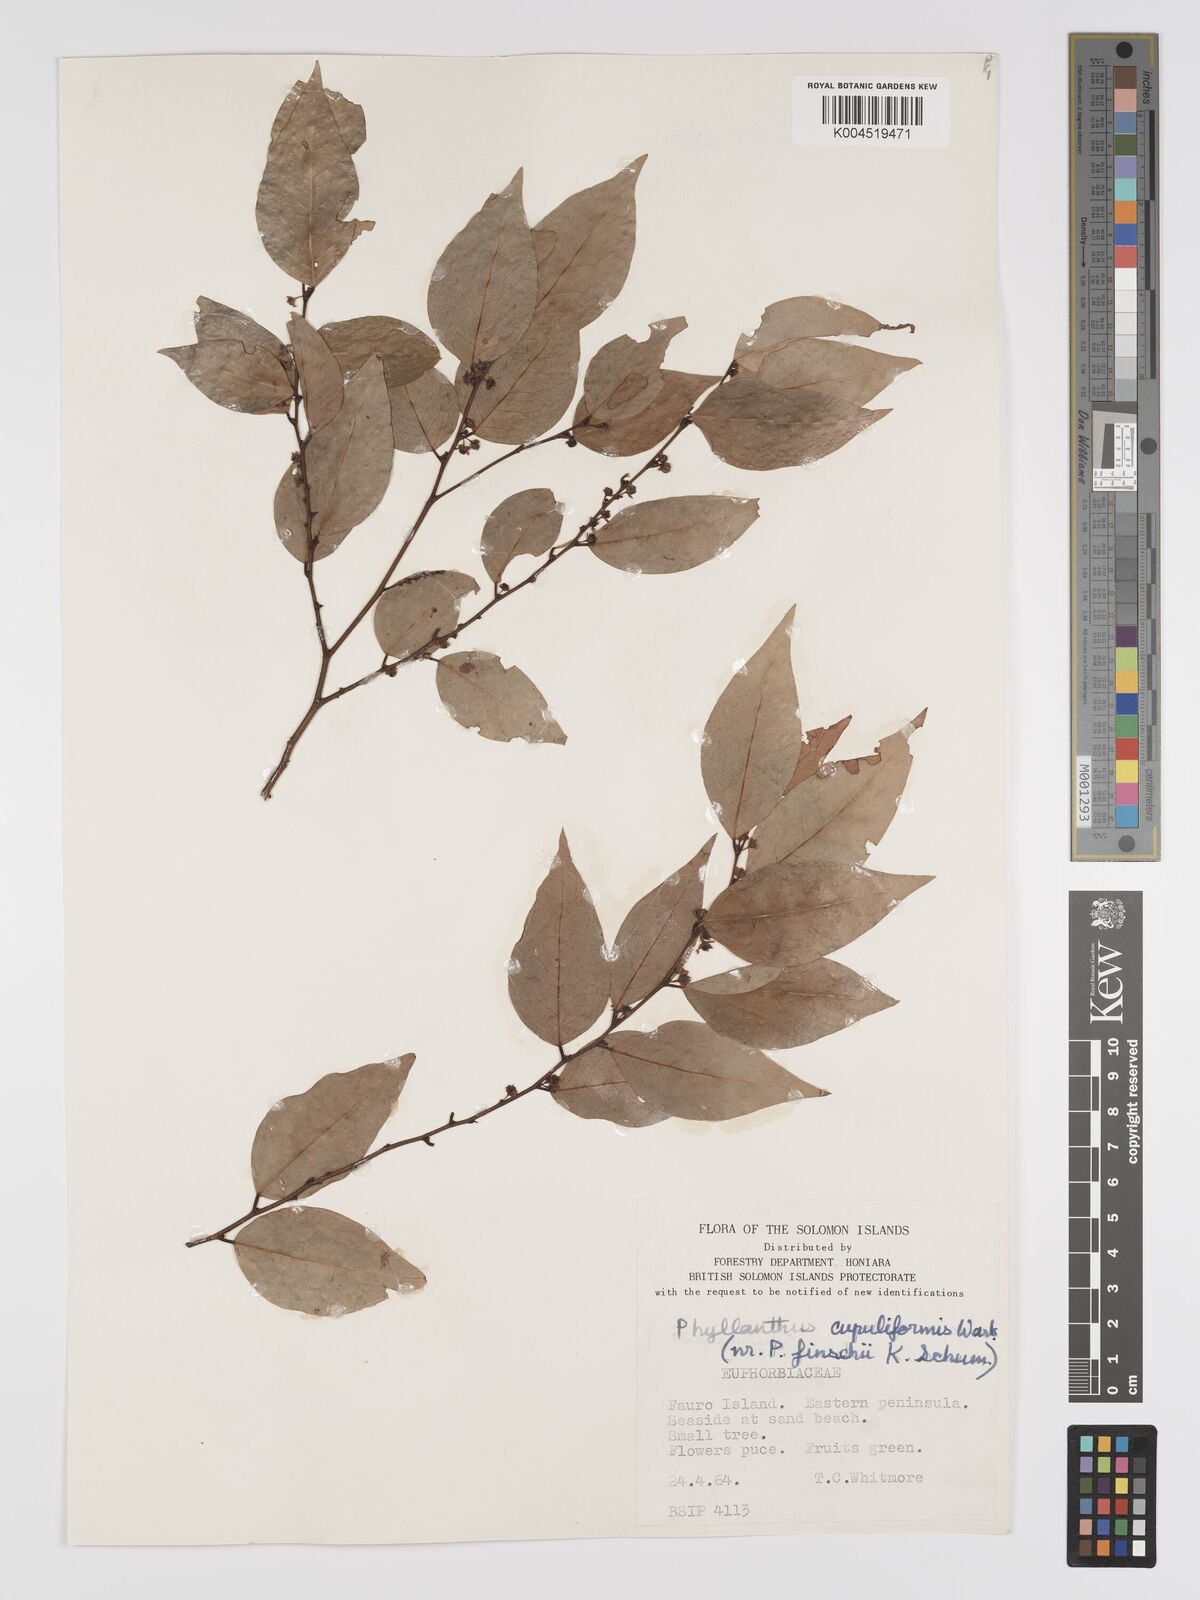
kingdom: Plantae
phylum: Tracheophyta
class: Magnoliopsida
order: Malpighiales
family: Phyllanthaceae
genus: Phyllanthus
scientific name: Phyllanthus finschii
